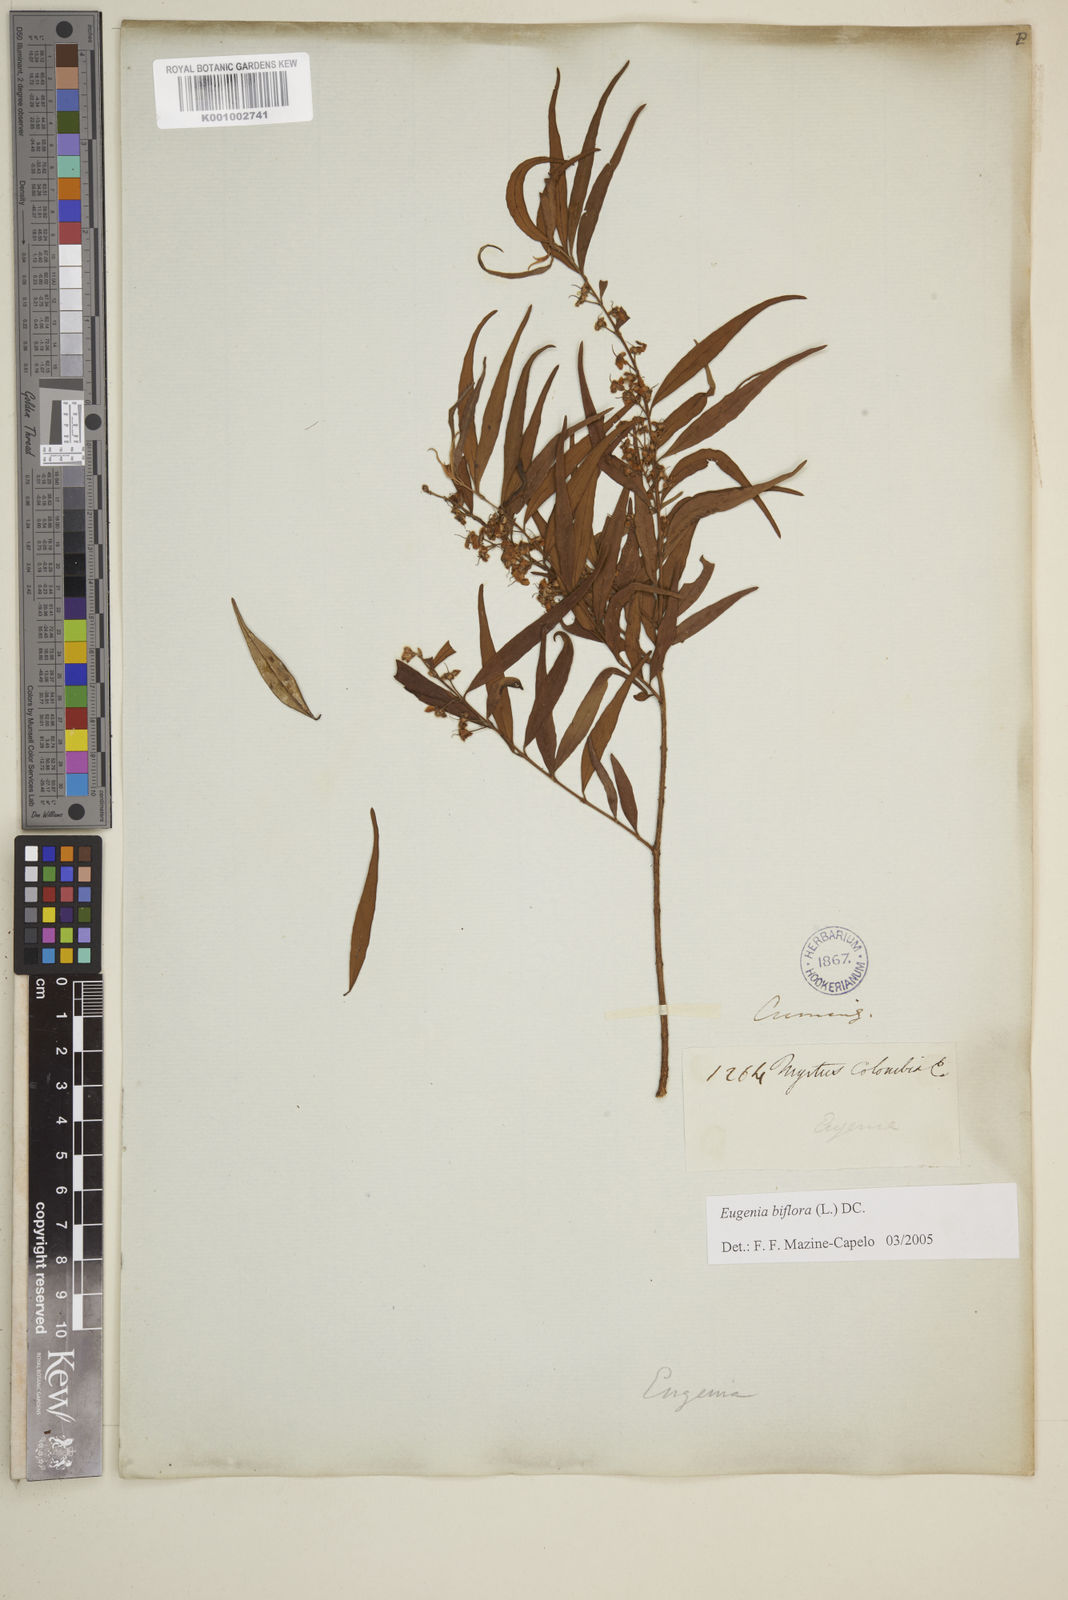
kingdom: Plantae
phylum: Tracheophyta
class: Magnoliopsida
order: Myrtales
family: Myrtaceae
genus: Eugenia
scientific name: Eugenia biflora
